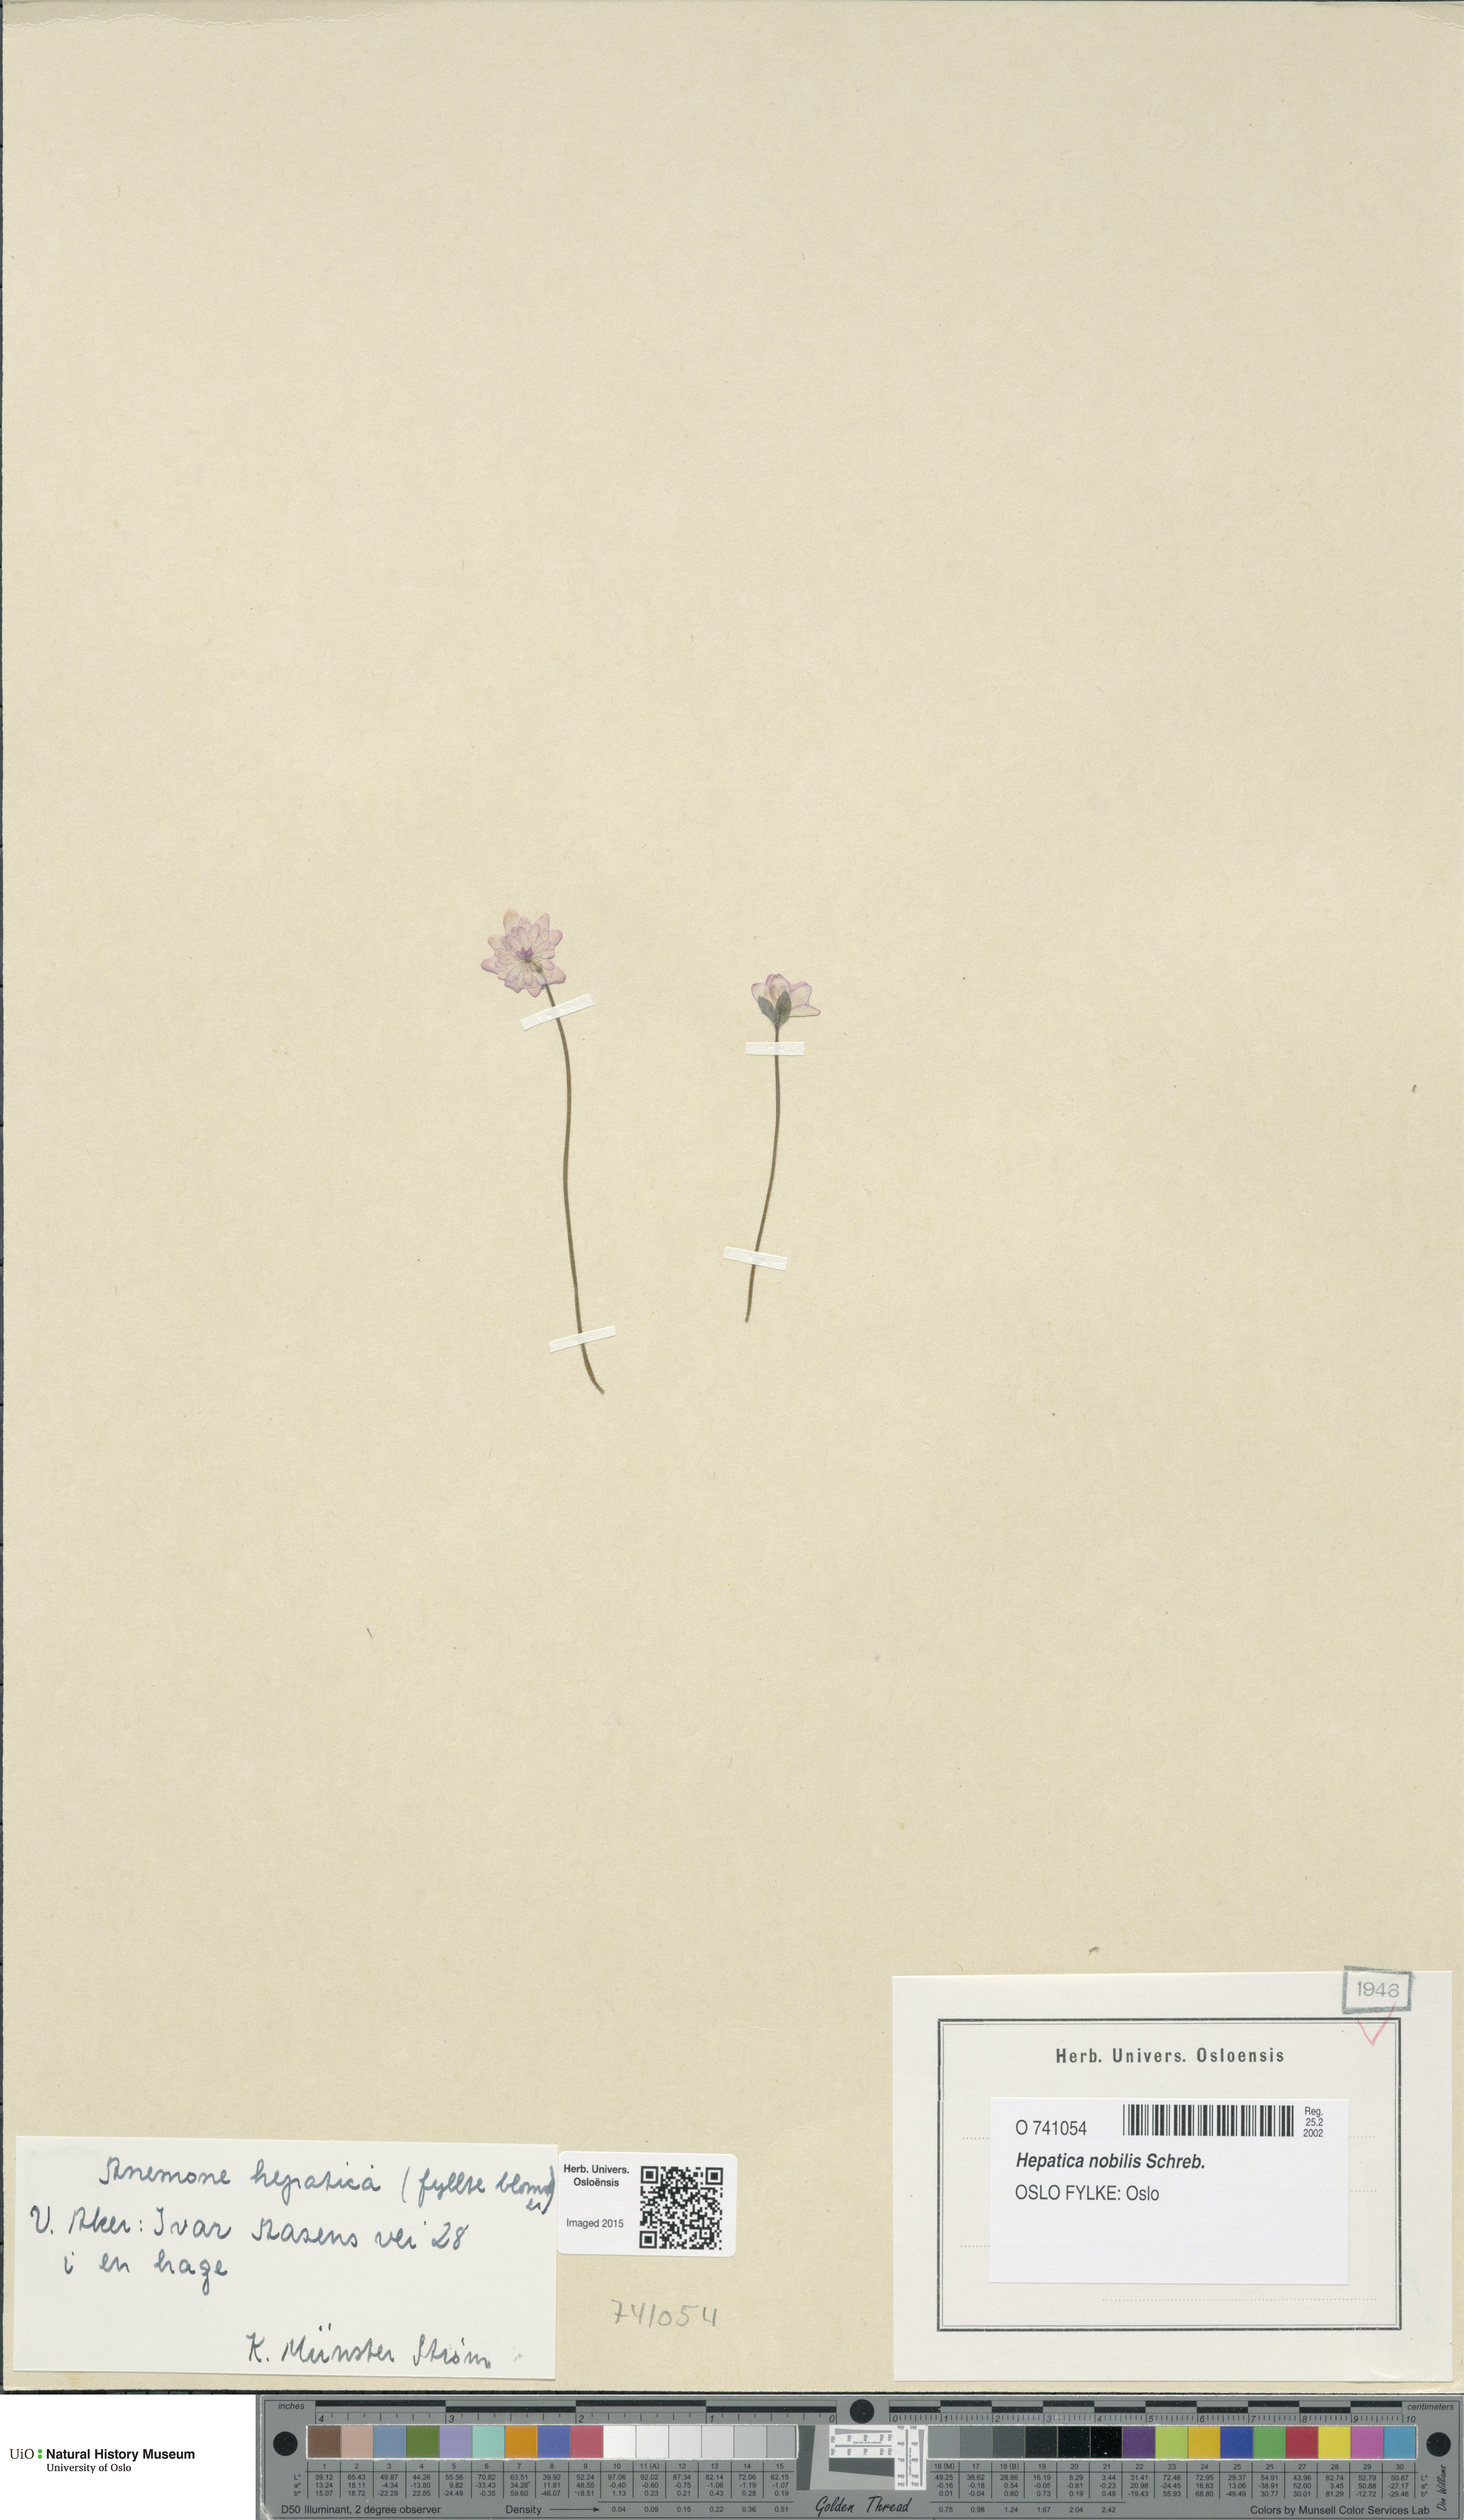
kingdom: Plantae
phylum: Tracheophyta
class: Magnoliopsida
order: Ranunculales
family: Ranunculaceae
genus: Hepatica
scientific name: Hepatica nobilis
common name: Liverleaf
